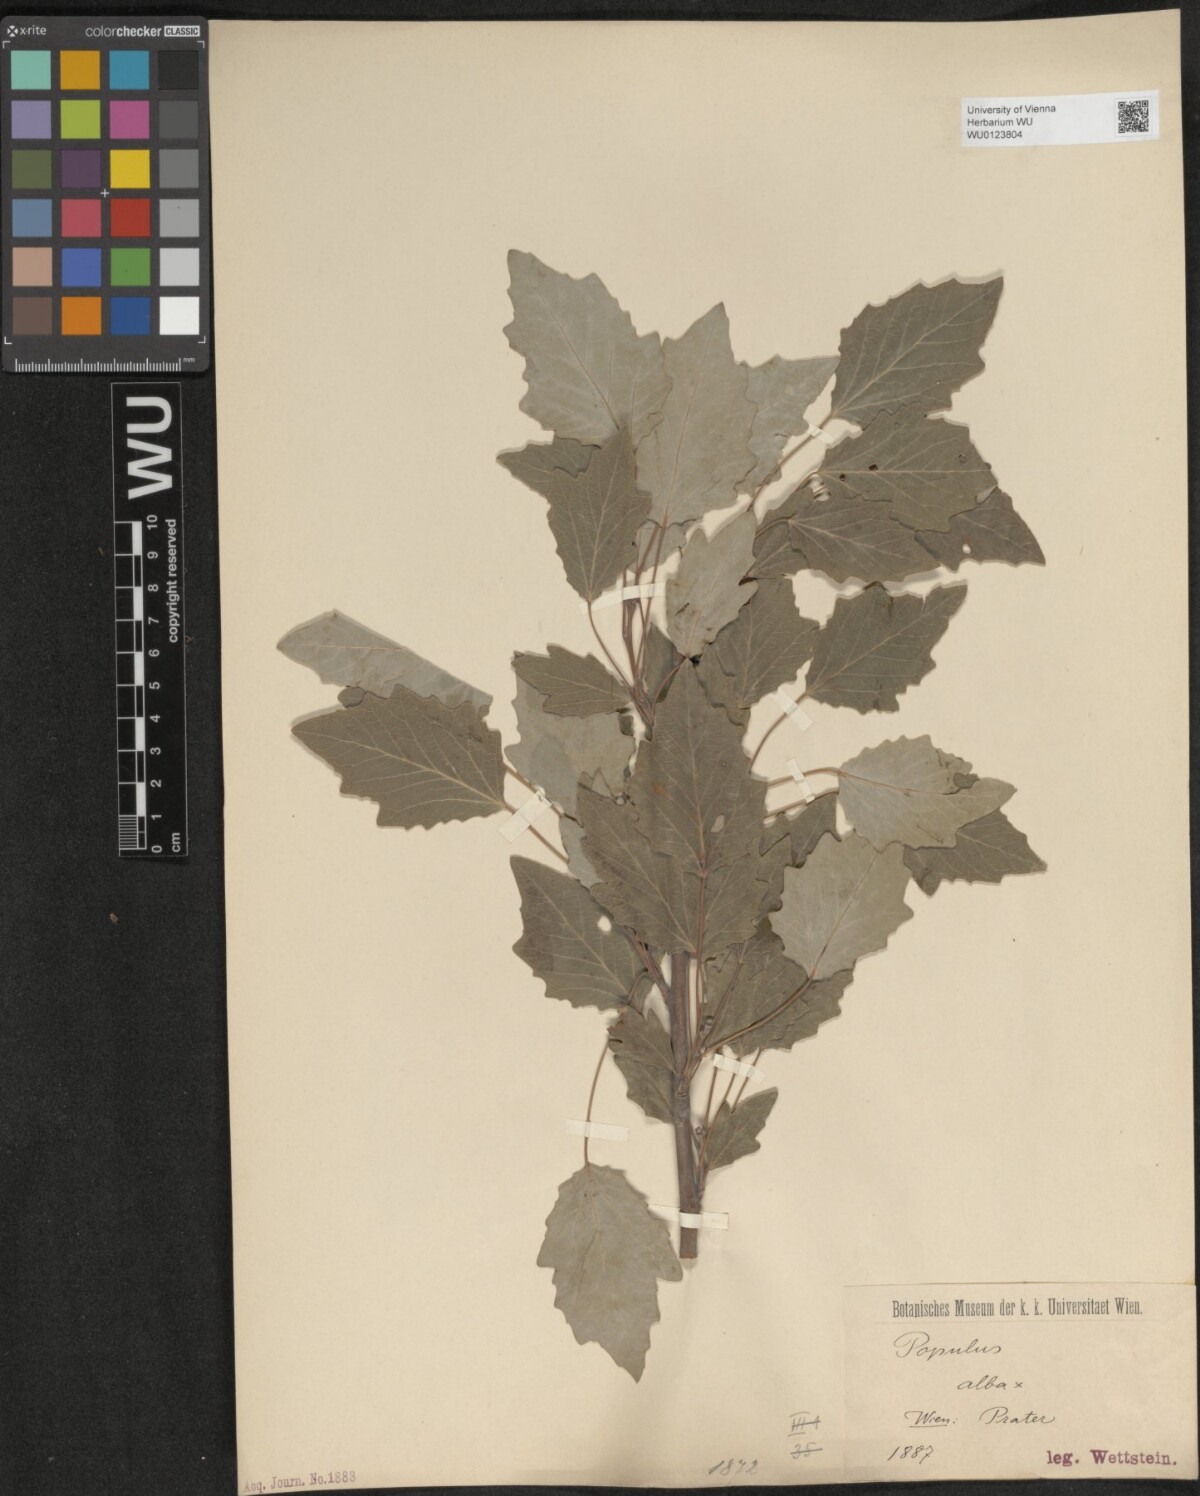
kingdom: Plantae
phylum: Tracheophyta
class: Magnoliopsida
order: Malpighiales
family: Salicaceae
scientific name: Salicaceae
